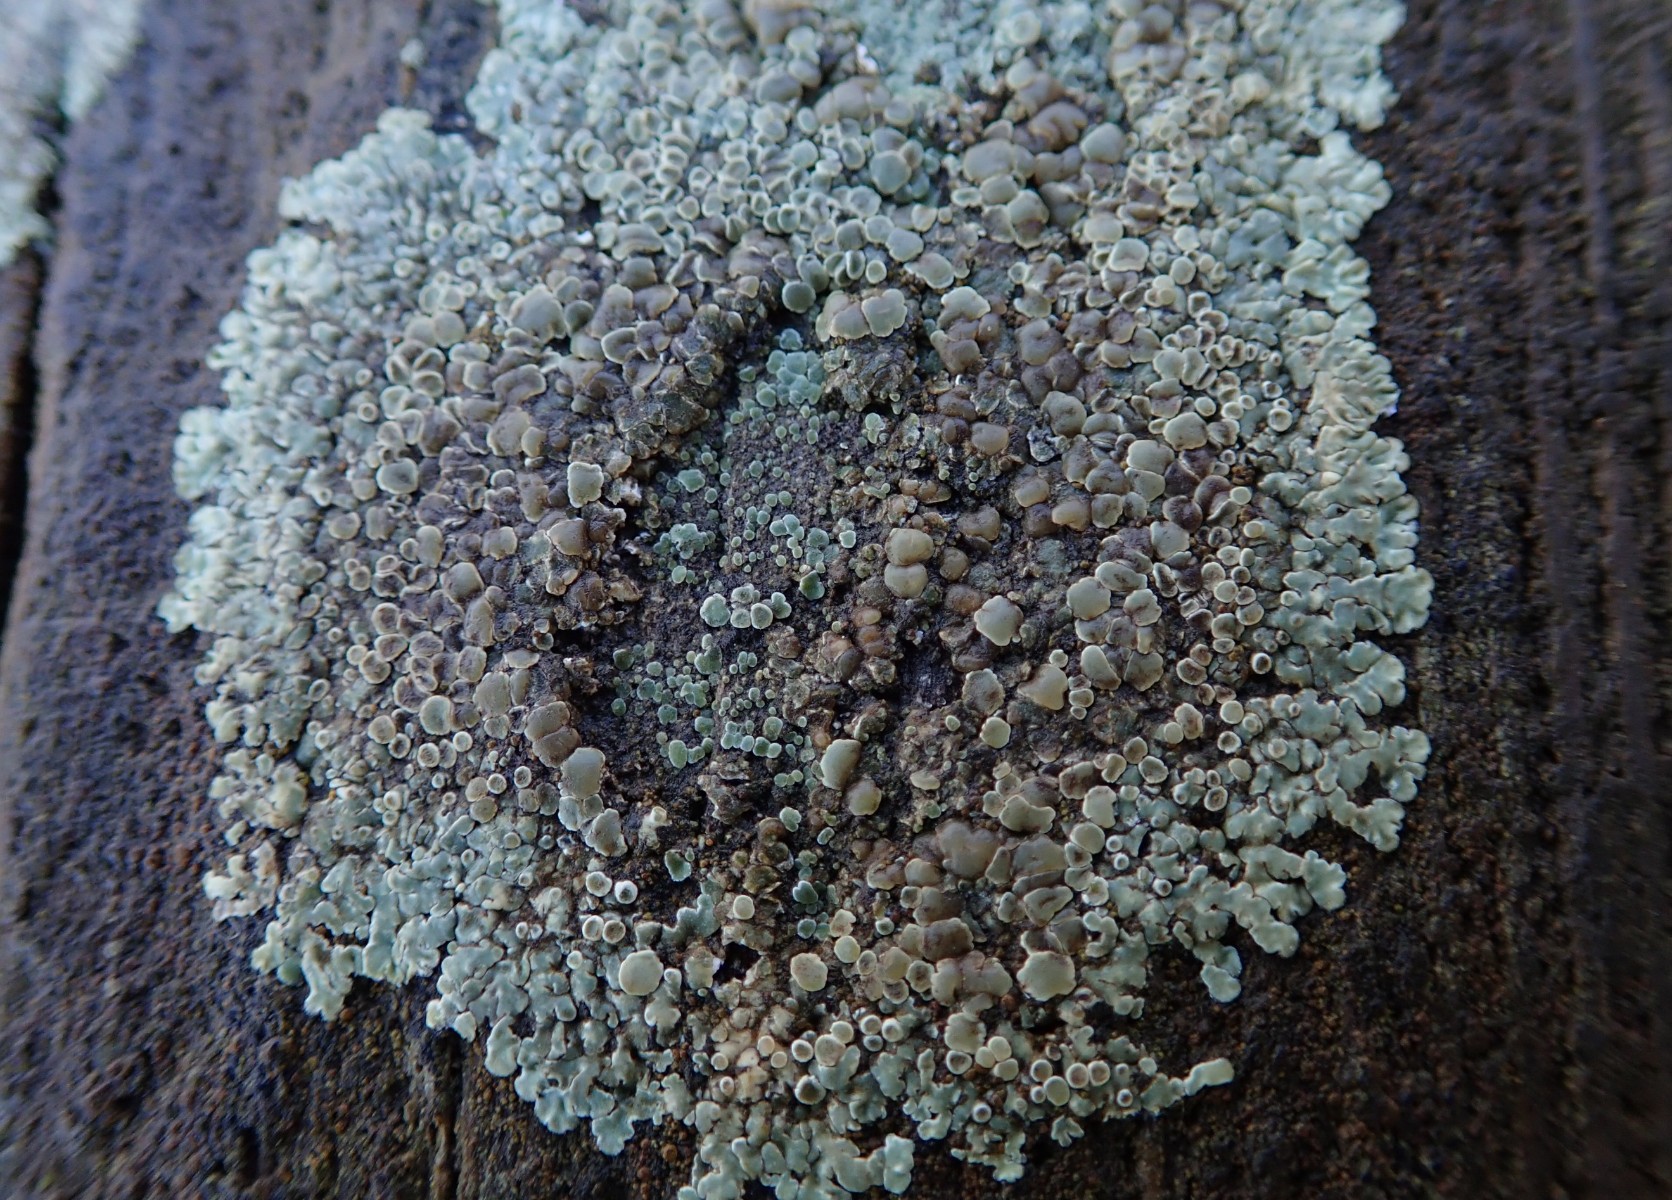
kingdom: Fungi
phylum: Ascomycota
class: Lecanoromycetes
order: Lecanorales
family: Lecanoraceae
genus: Protoparmeliopsis
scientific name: Protoparmeliopsis muralis
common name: randfliget kantskivelav
